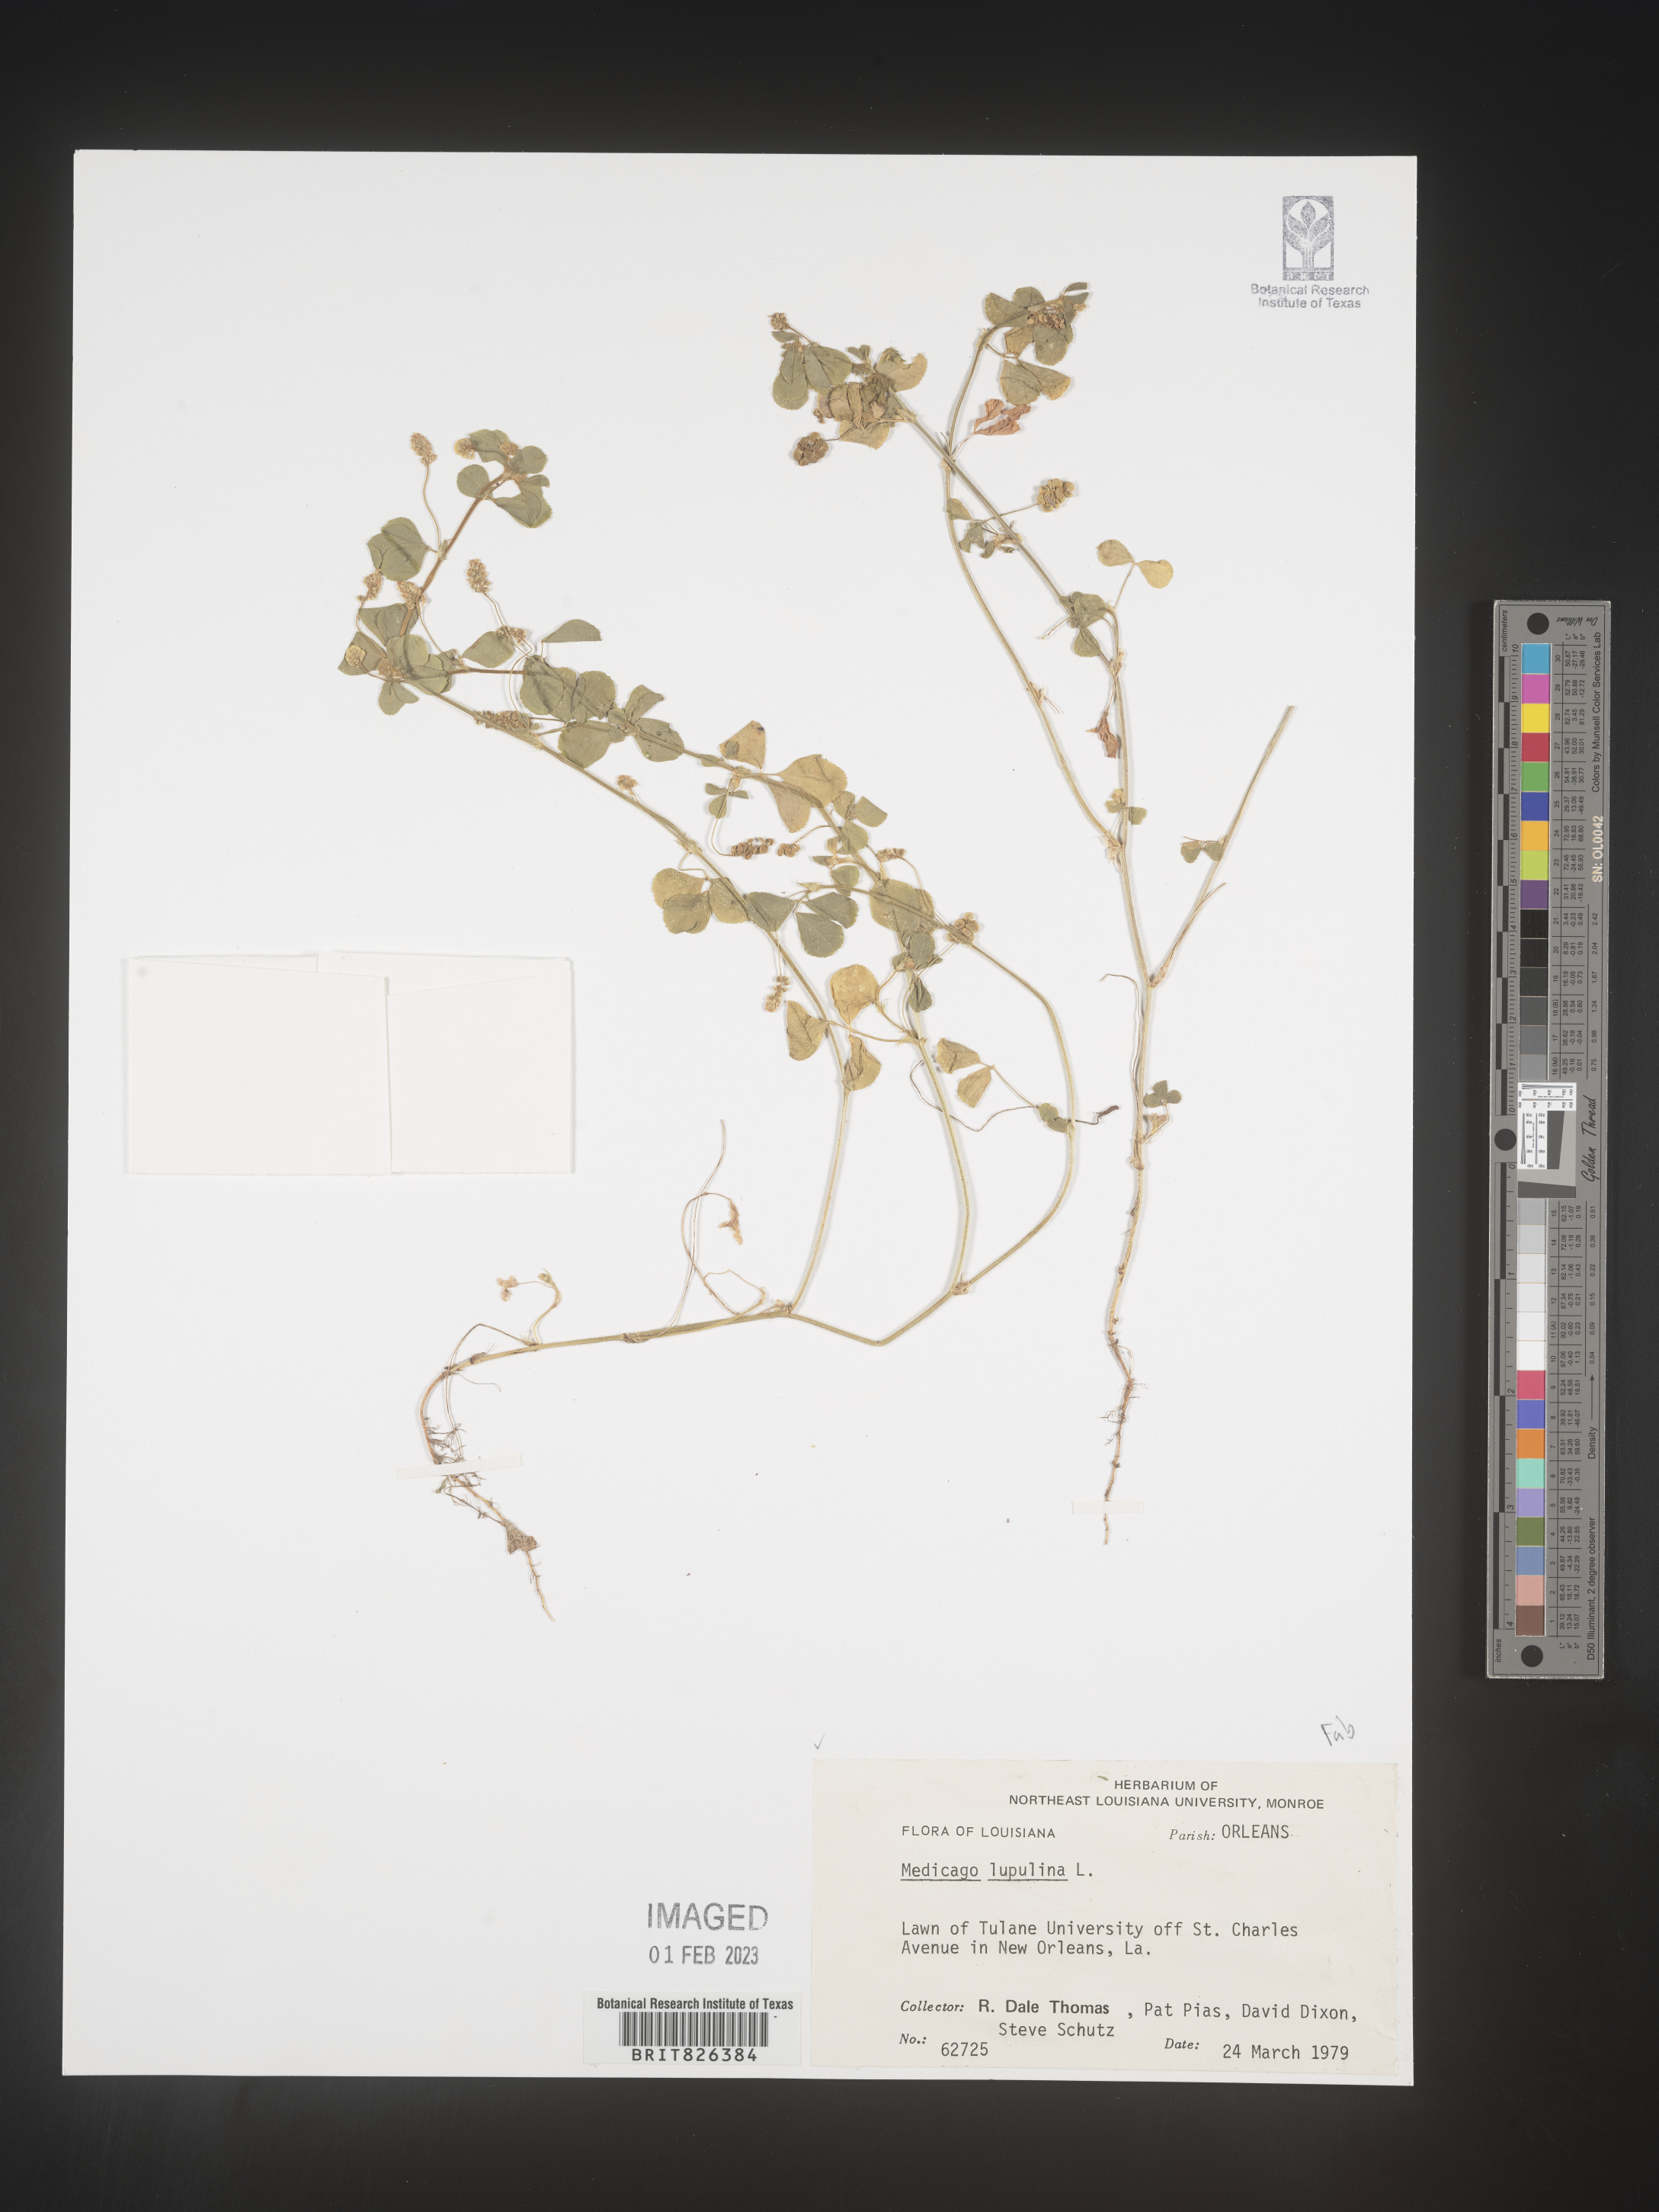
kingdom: Plantae
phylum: Tracheophyta
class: Magnoliopsida
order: Fabales
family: Fabaceae
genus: Medicago
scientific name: Medicago lupulina
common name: Black medick
